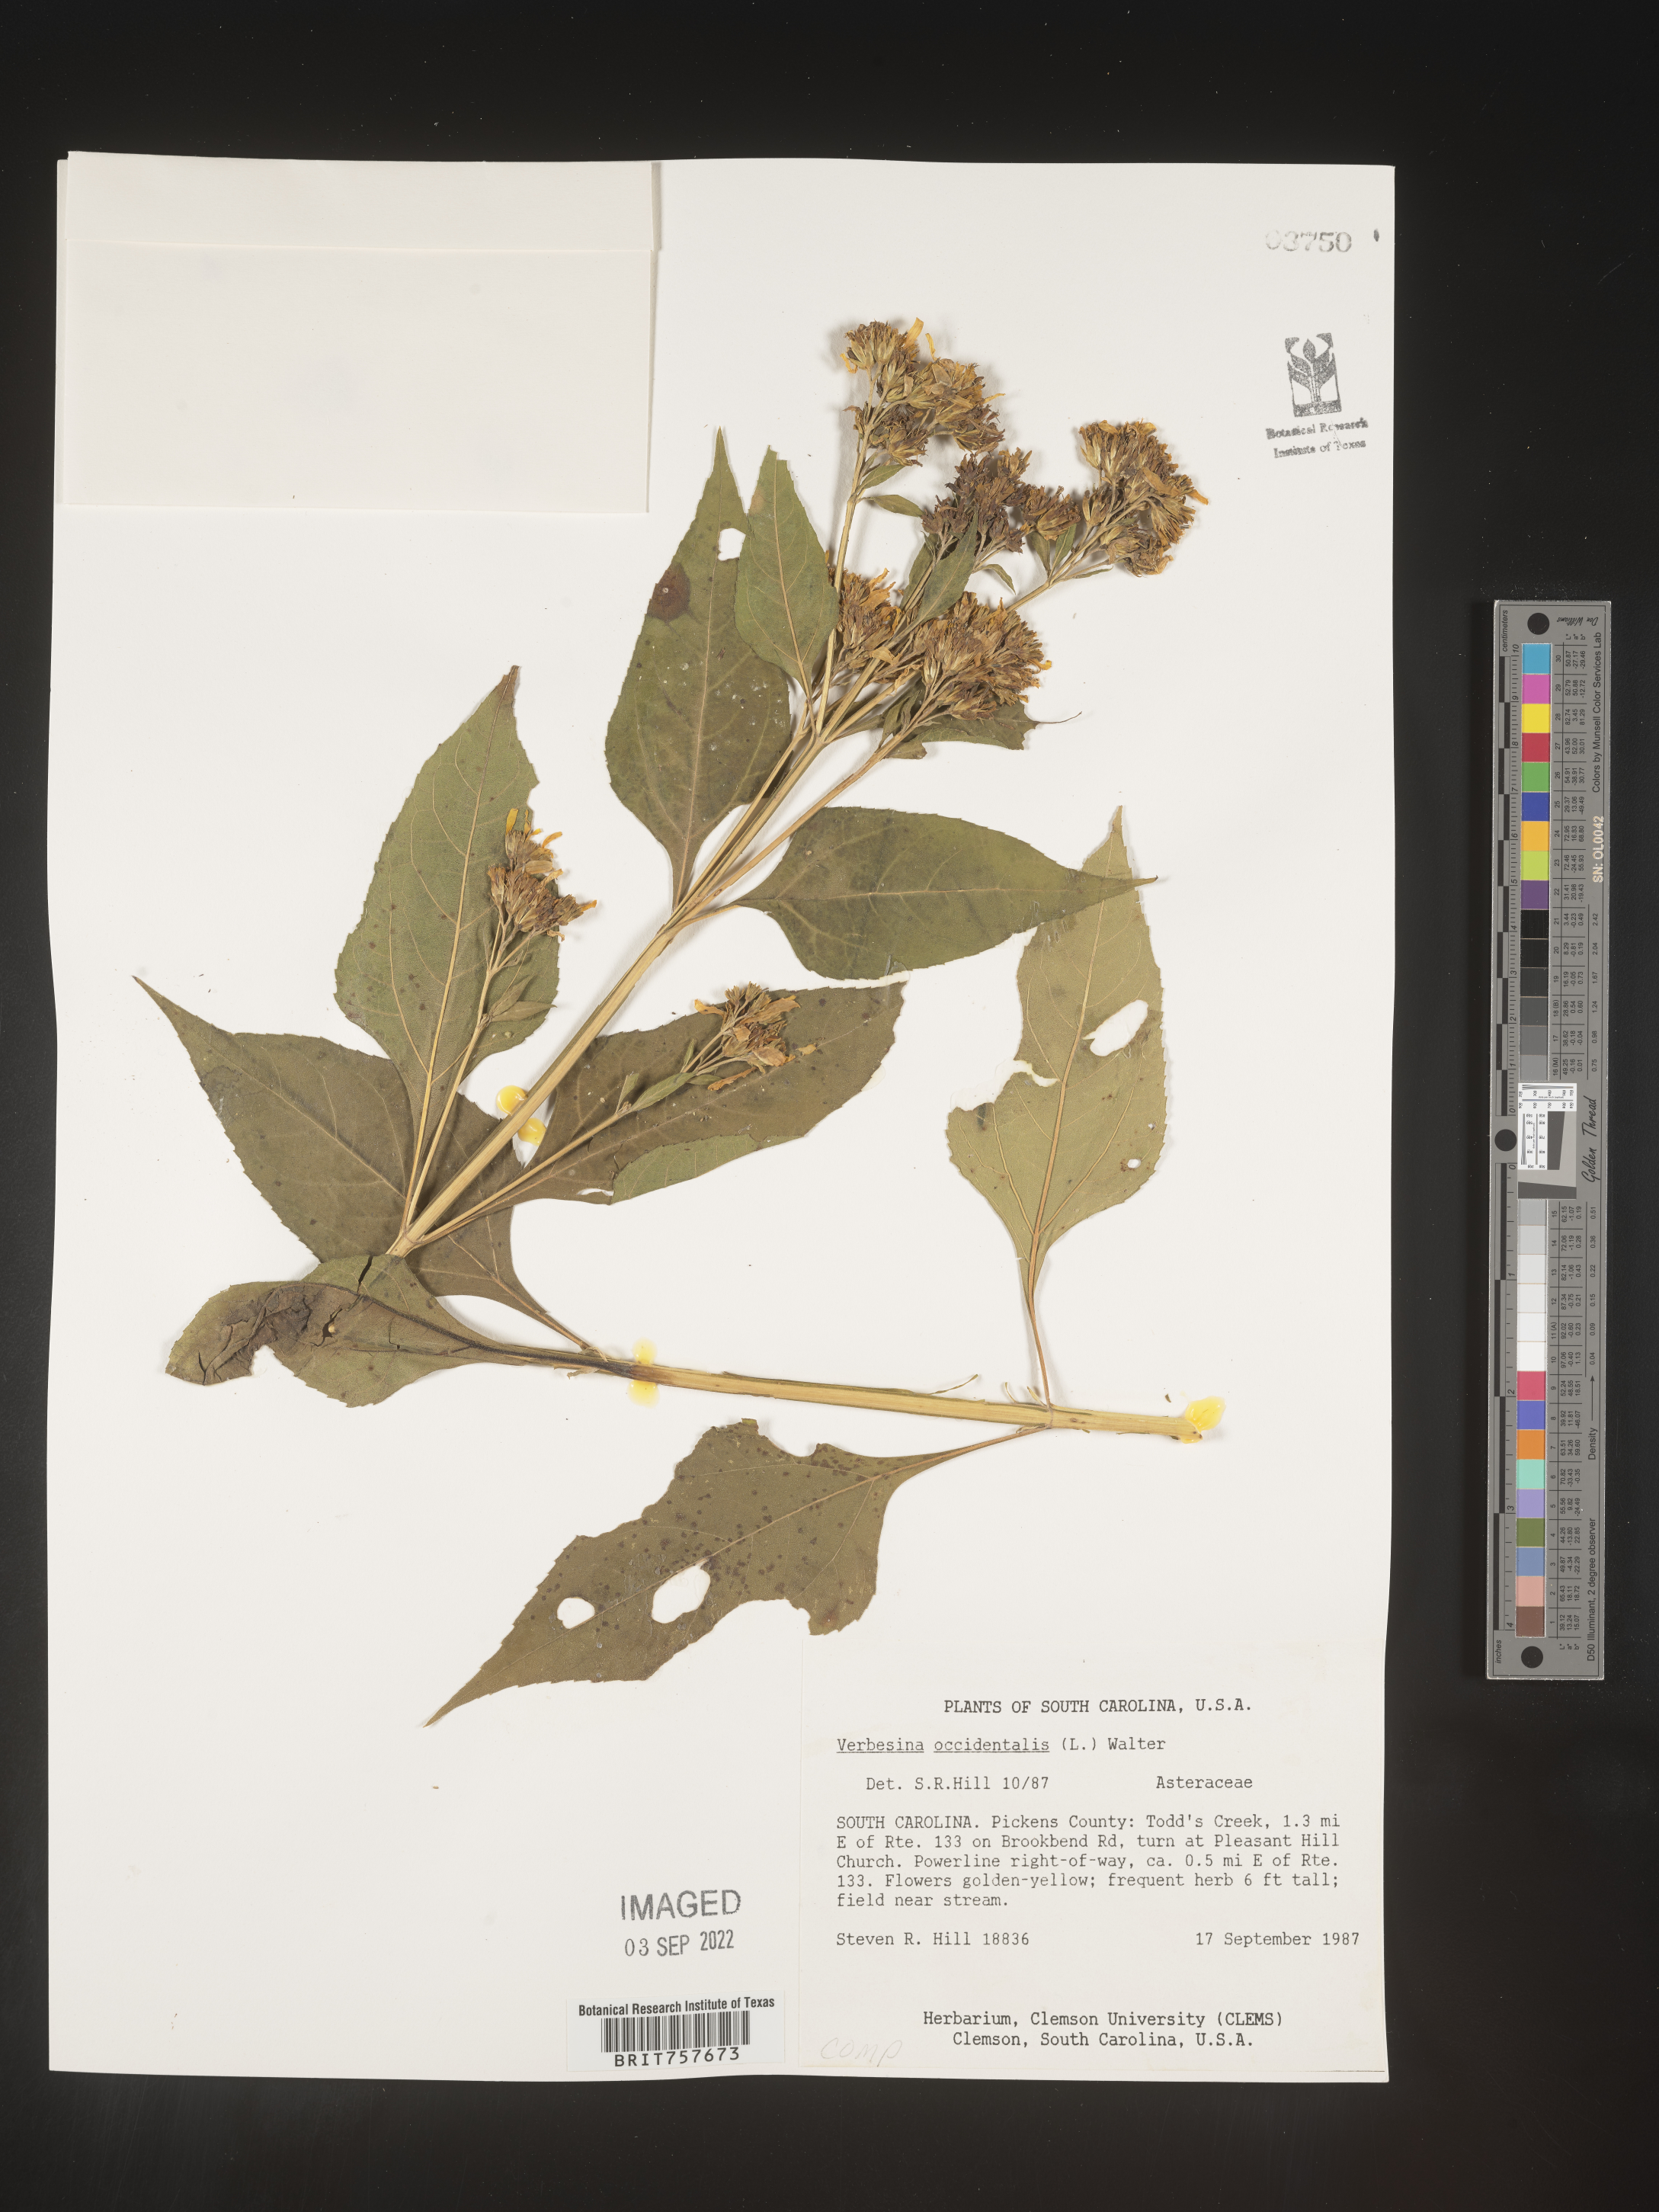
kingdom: Plantae
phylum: Tracheophyta
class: Magnoliopsida
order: Asterales
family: Asteraceae
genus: Verbesina
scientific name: Verbesina occidentalis
